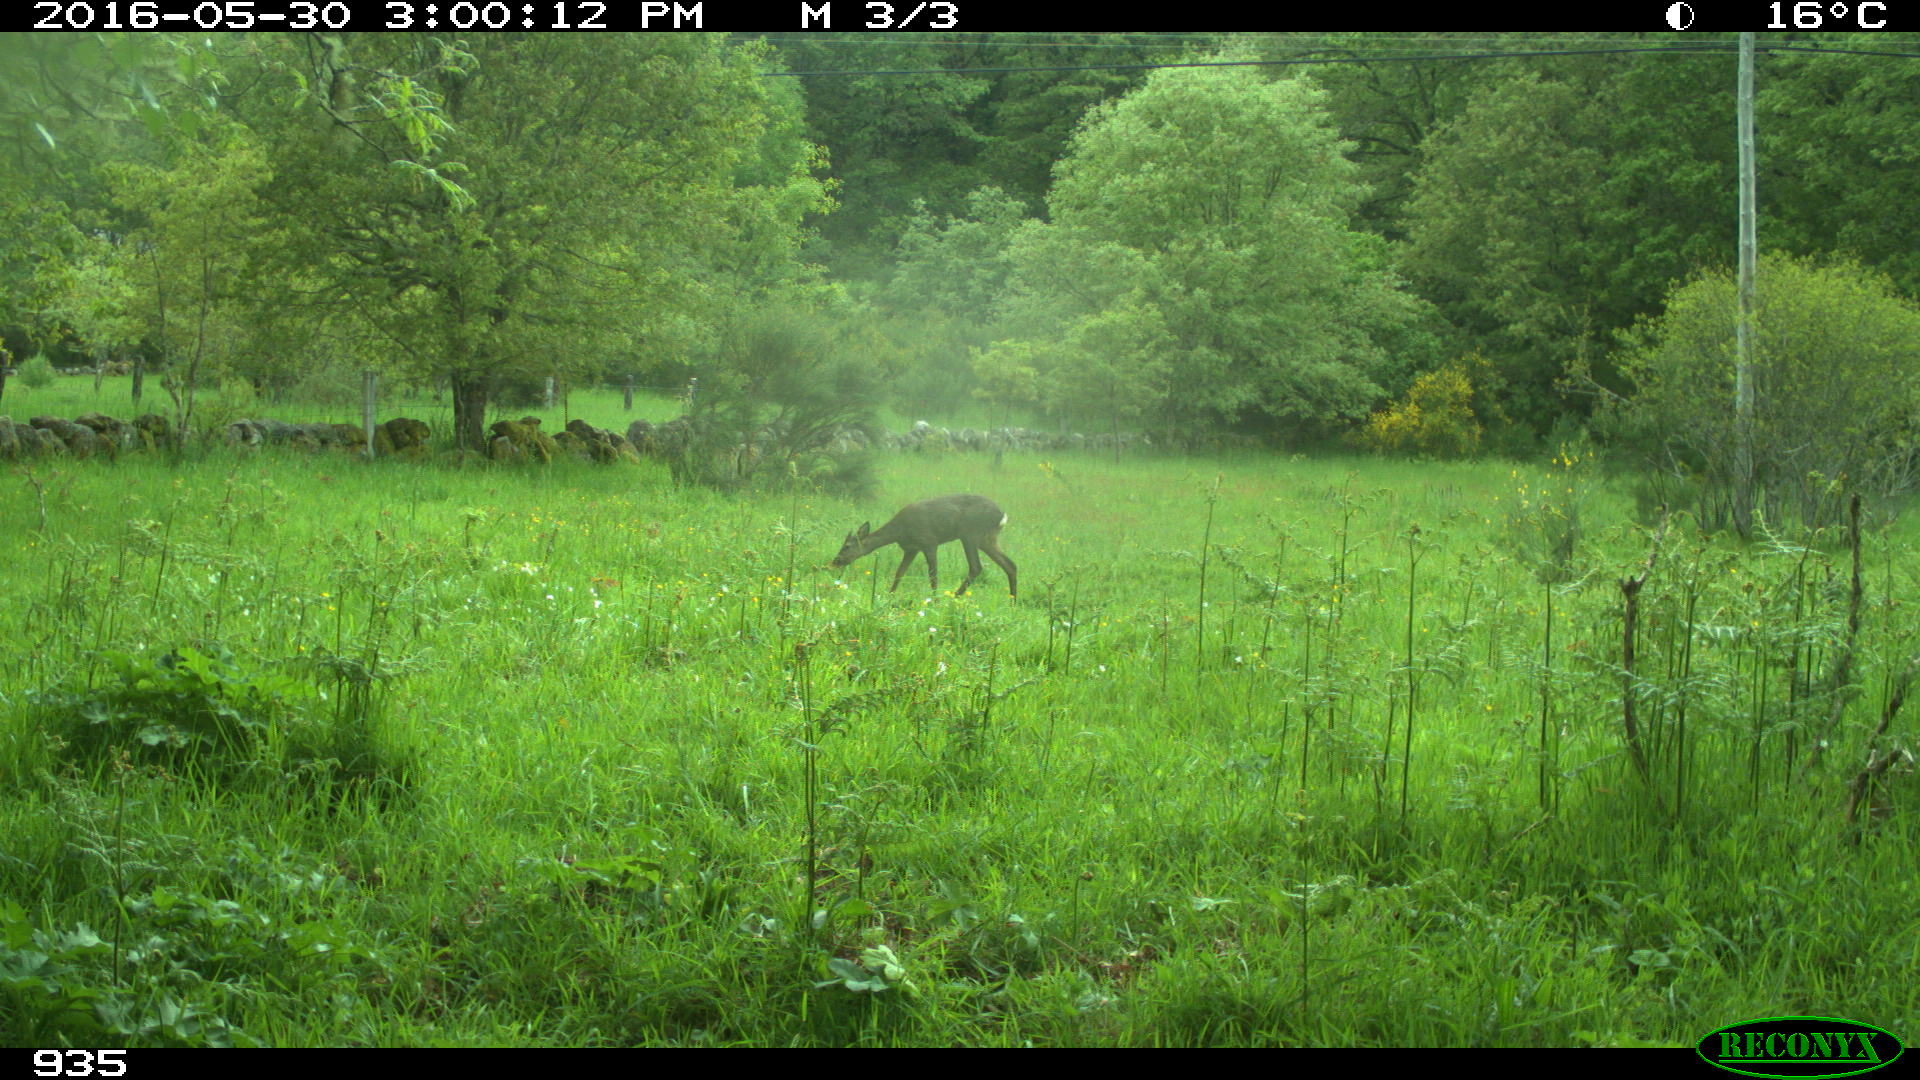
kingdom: Animalia
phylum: Chordata
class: Mammalia
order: Artiodactyla
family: Cervidae
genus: Capreolus
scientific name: Capreolus capreolus
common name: Western roe deer
